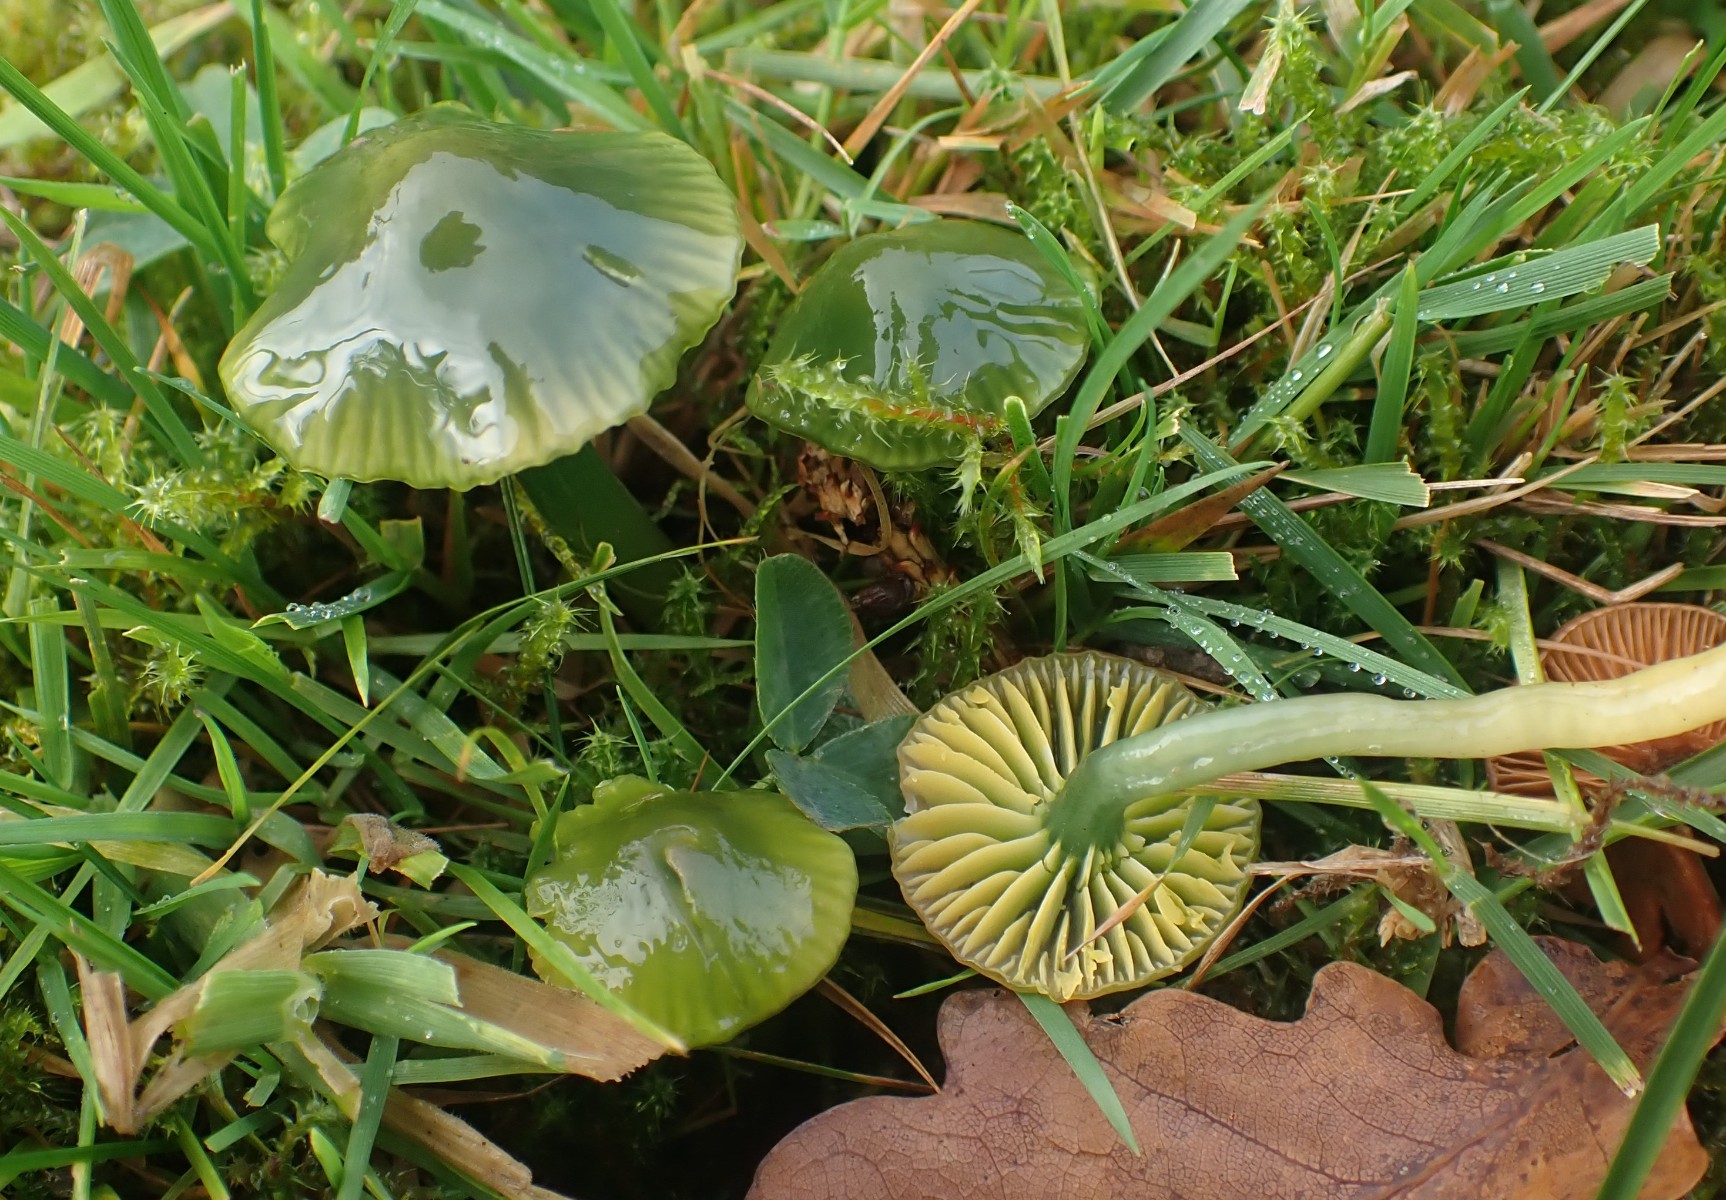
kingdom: Fungi
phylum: Basidiomycota
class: Agaricomycetes
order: Agaricales
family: Hygrophoraceae
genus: Gliophorus
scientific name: Gliophorus psittacinus
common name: papegøje-vokshat
